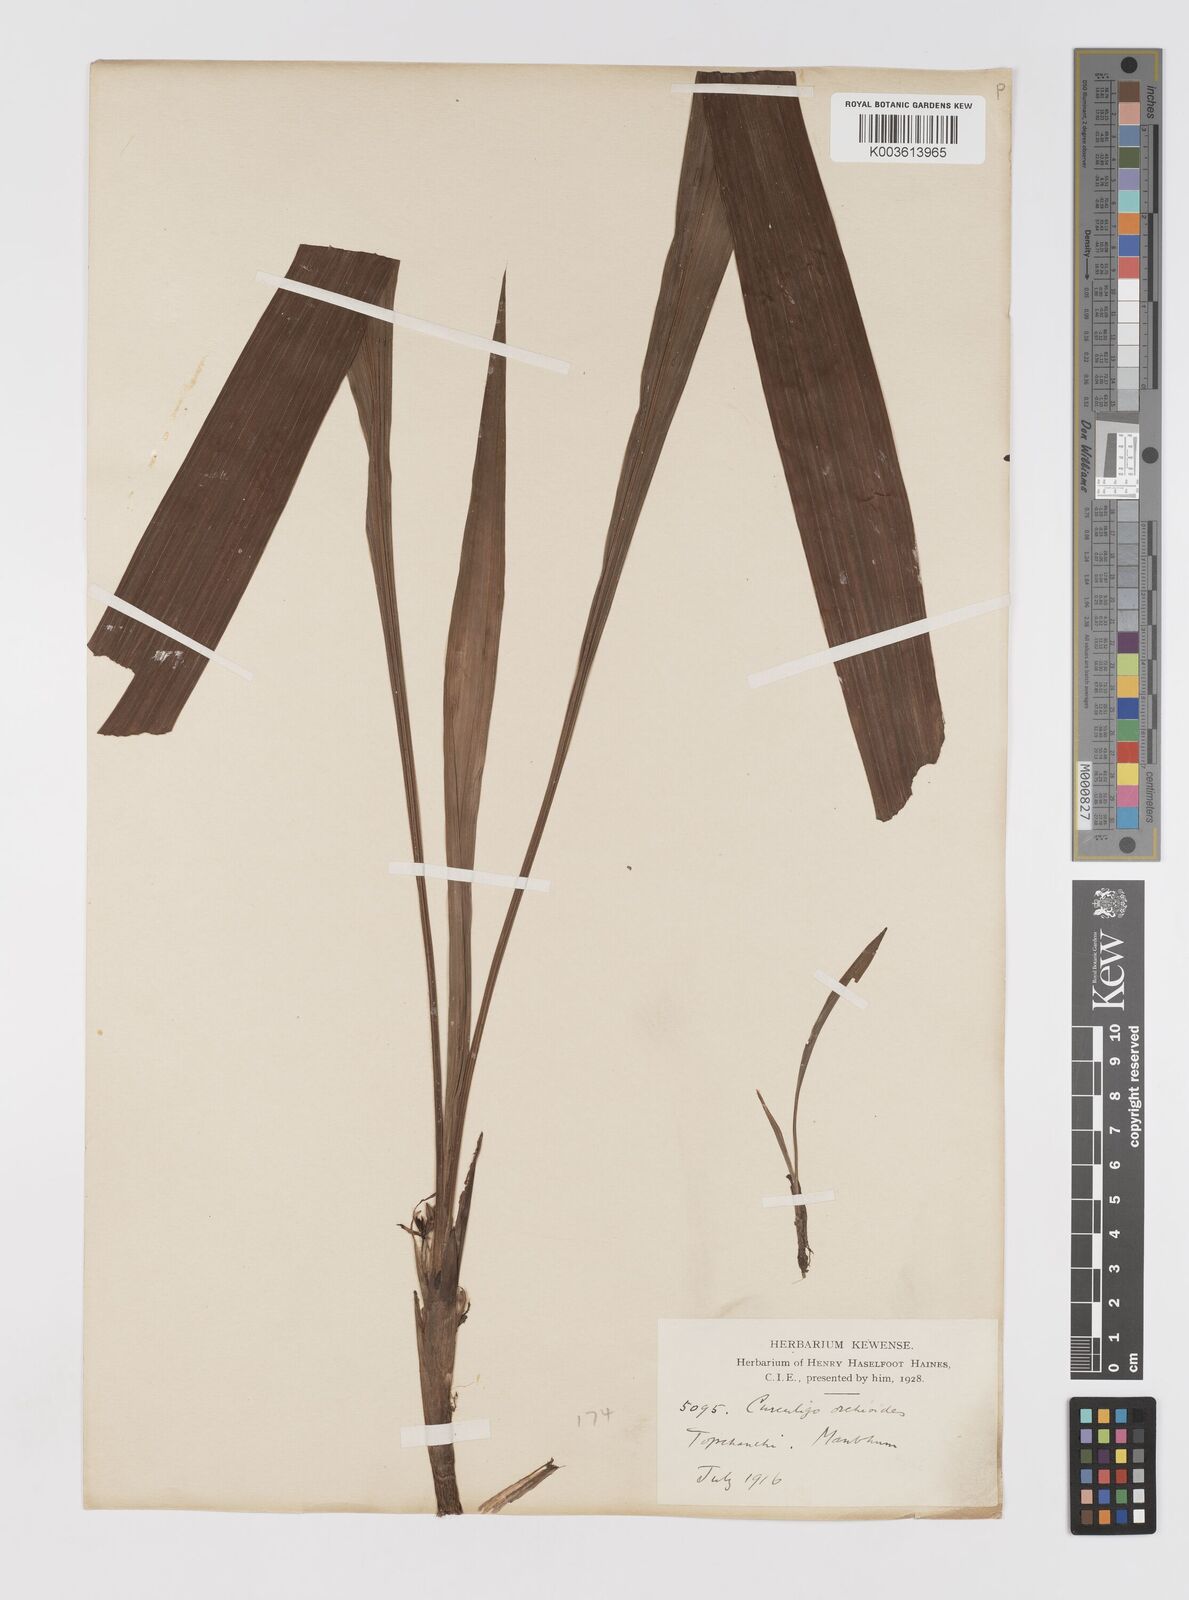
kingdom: Plantae
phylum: Tracheophyta
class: Liliopsida
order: Asparagales
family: Hypoxidaceae
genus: Curculigo
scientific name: Curculigo orchioides
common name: Golden eye-grass
